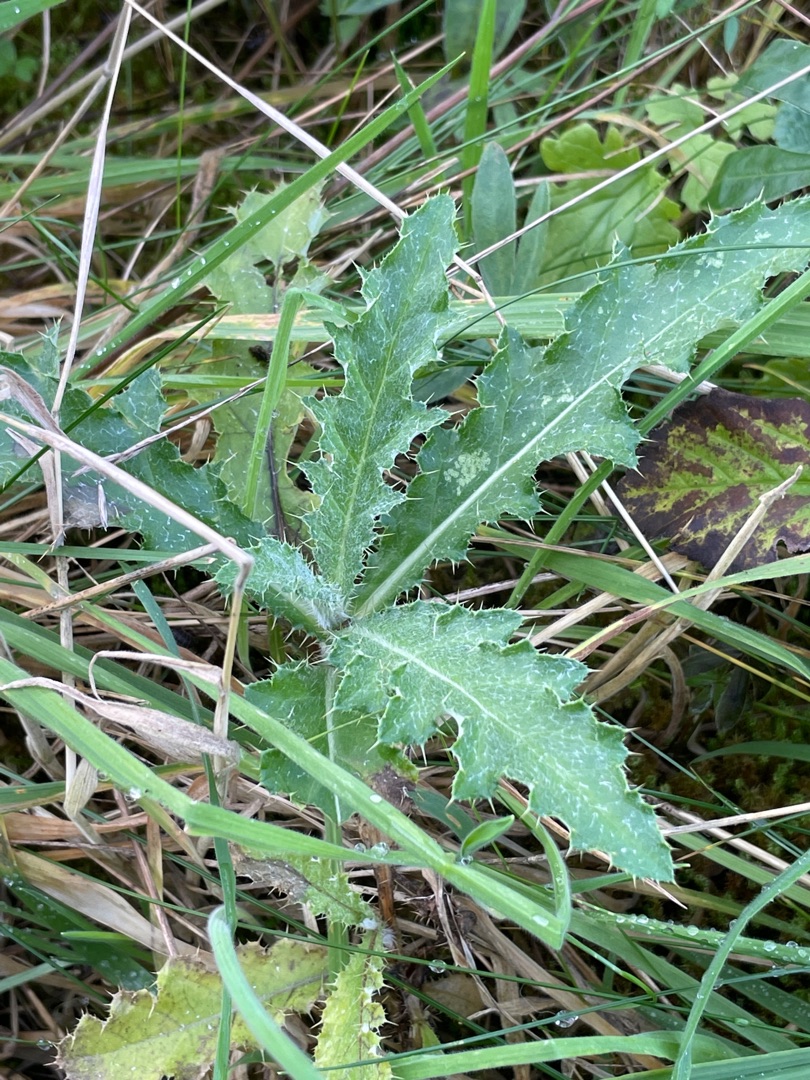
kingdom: Plantae
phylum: Tracheophyta
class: Magnoliopsida
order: Asterales
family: Asteraceae
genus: Cirsium
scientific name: Cirsium arvense
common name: Ager-tidsel
